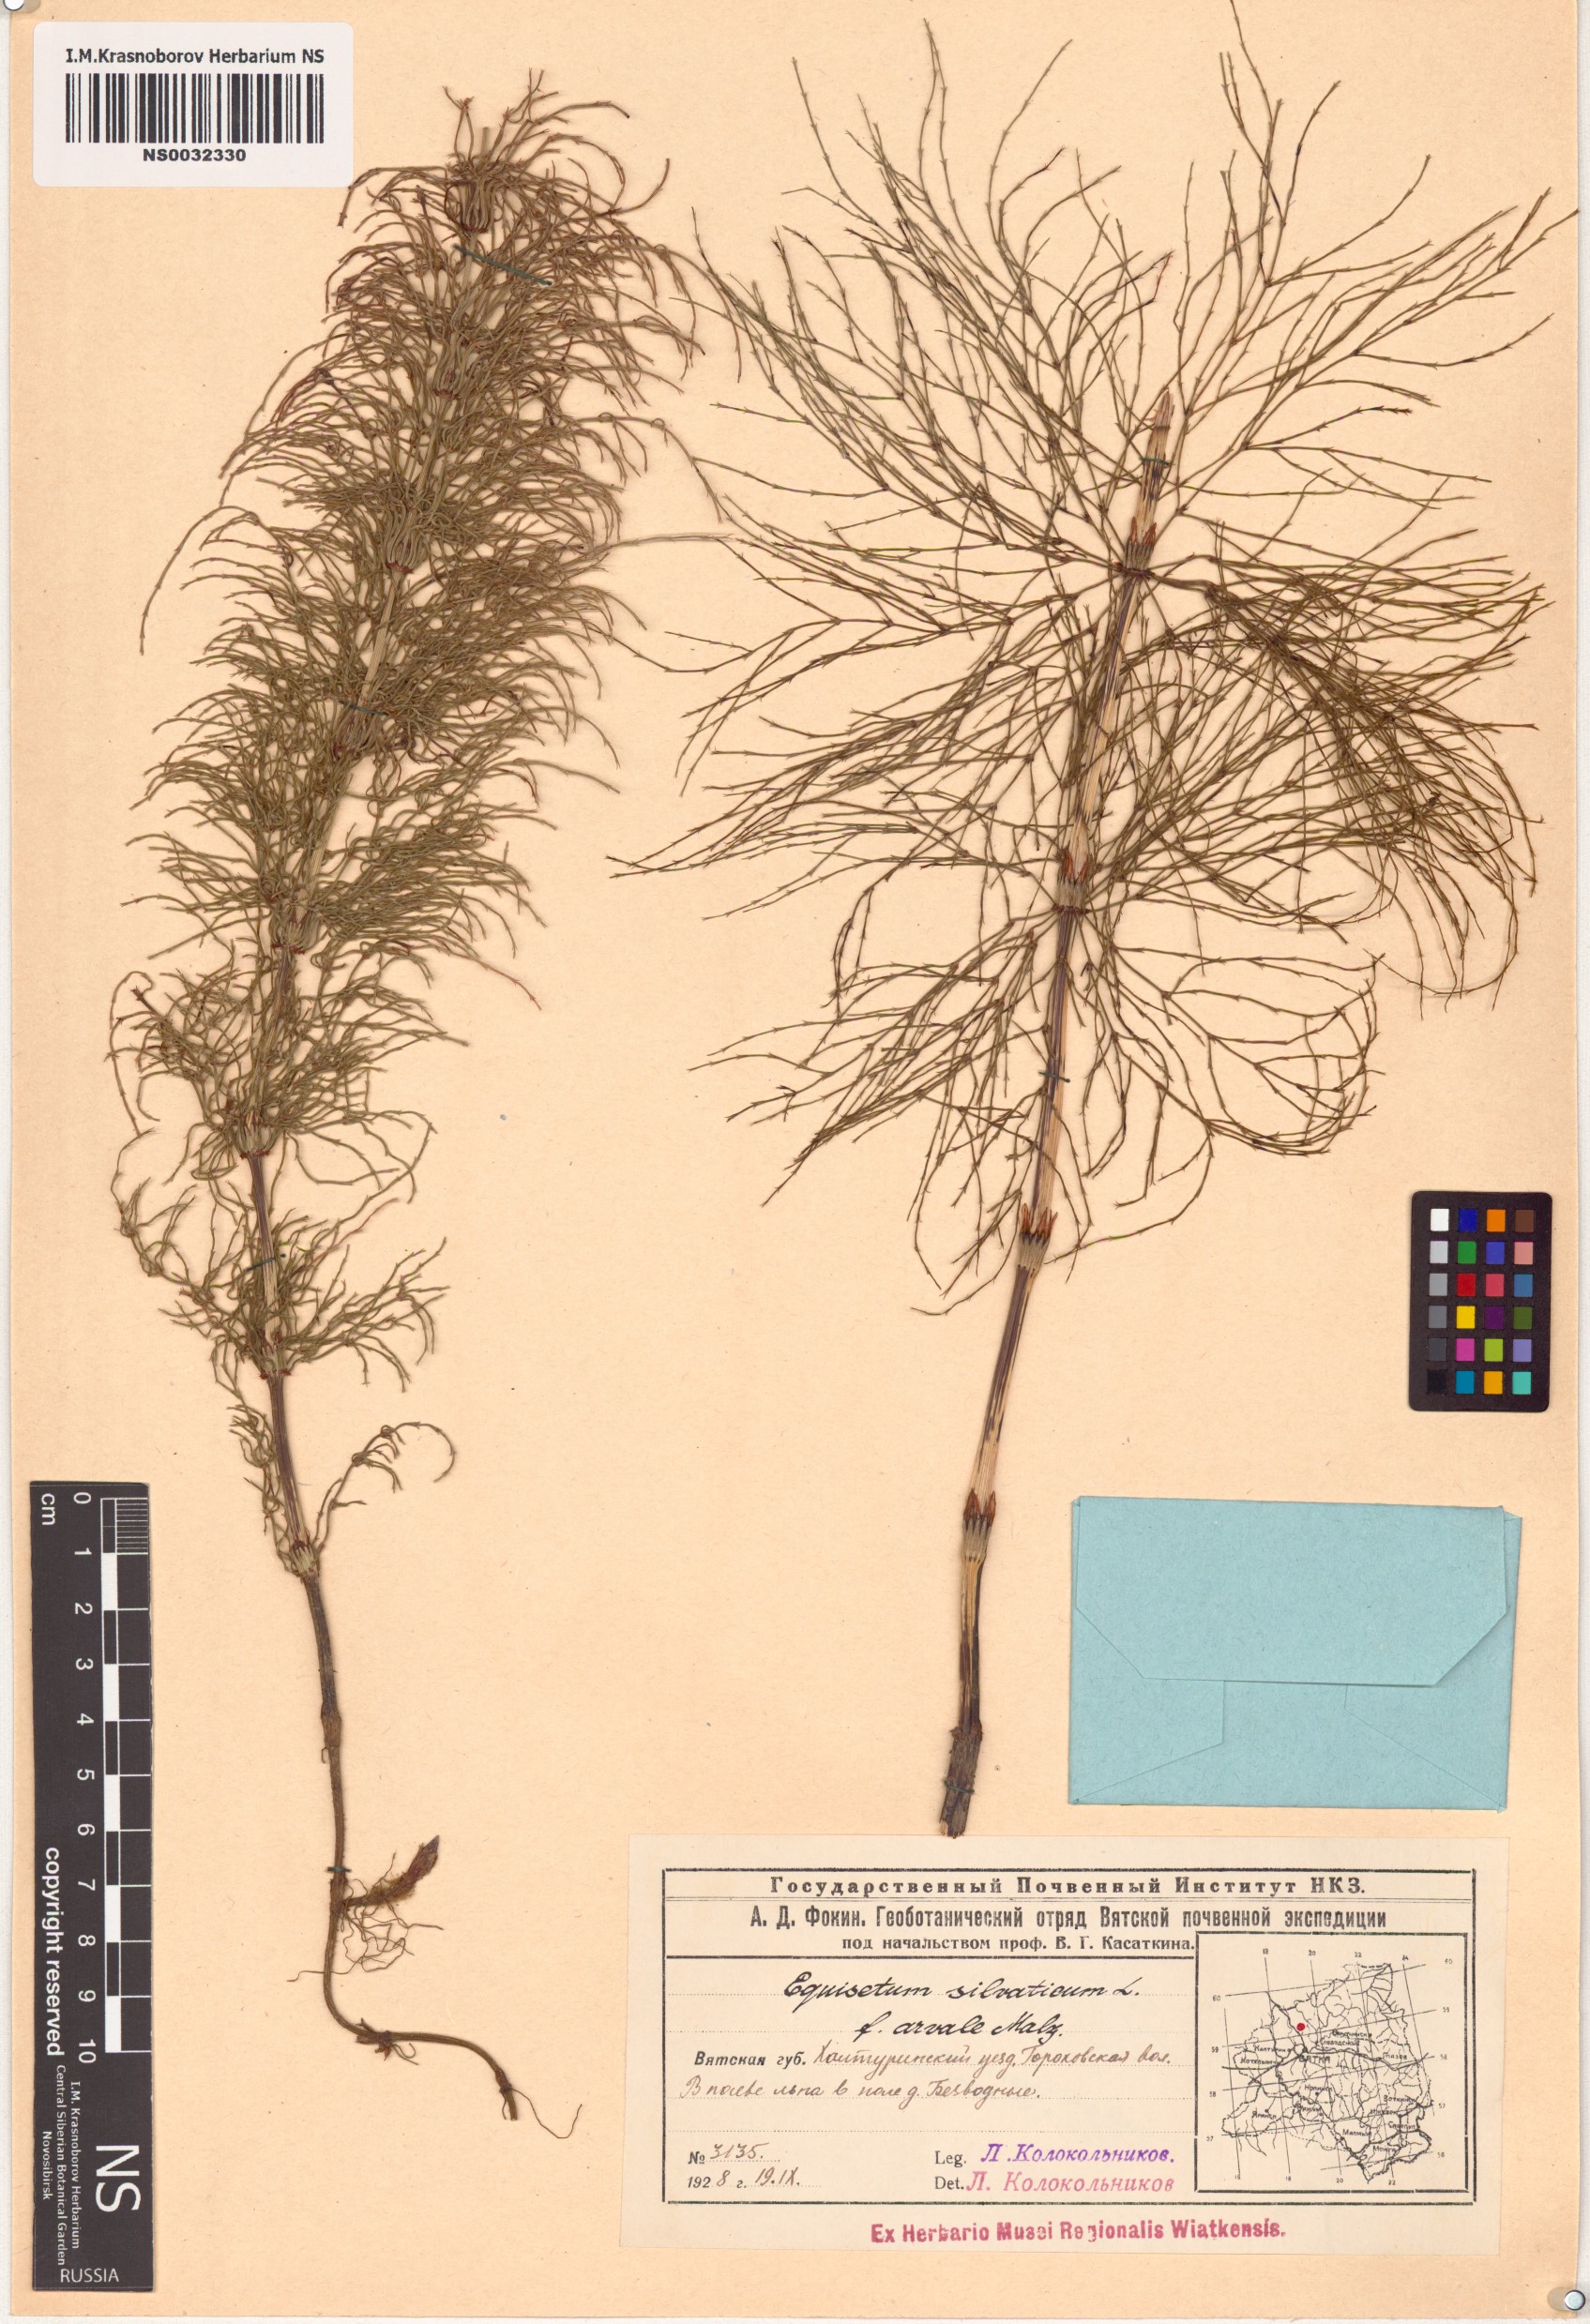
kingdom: Plantae
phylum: Tracheophyta
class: Polypodiopsida
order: Equisetales
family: Equisetaceae
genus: Equisetum
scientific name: Equisetum sylvaticum
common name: Wood horsetail
